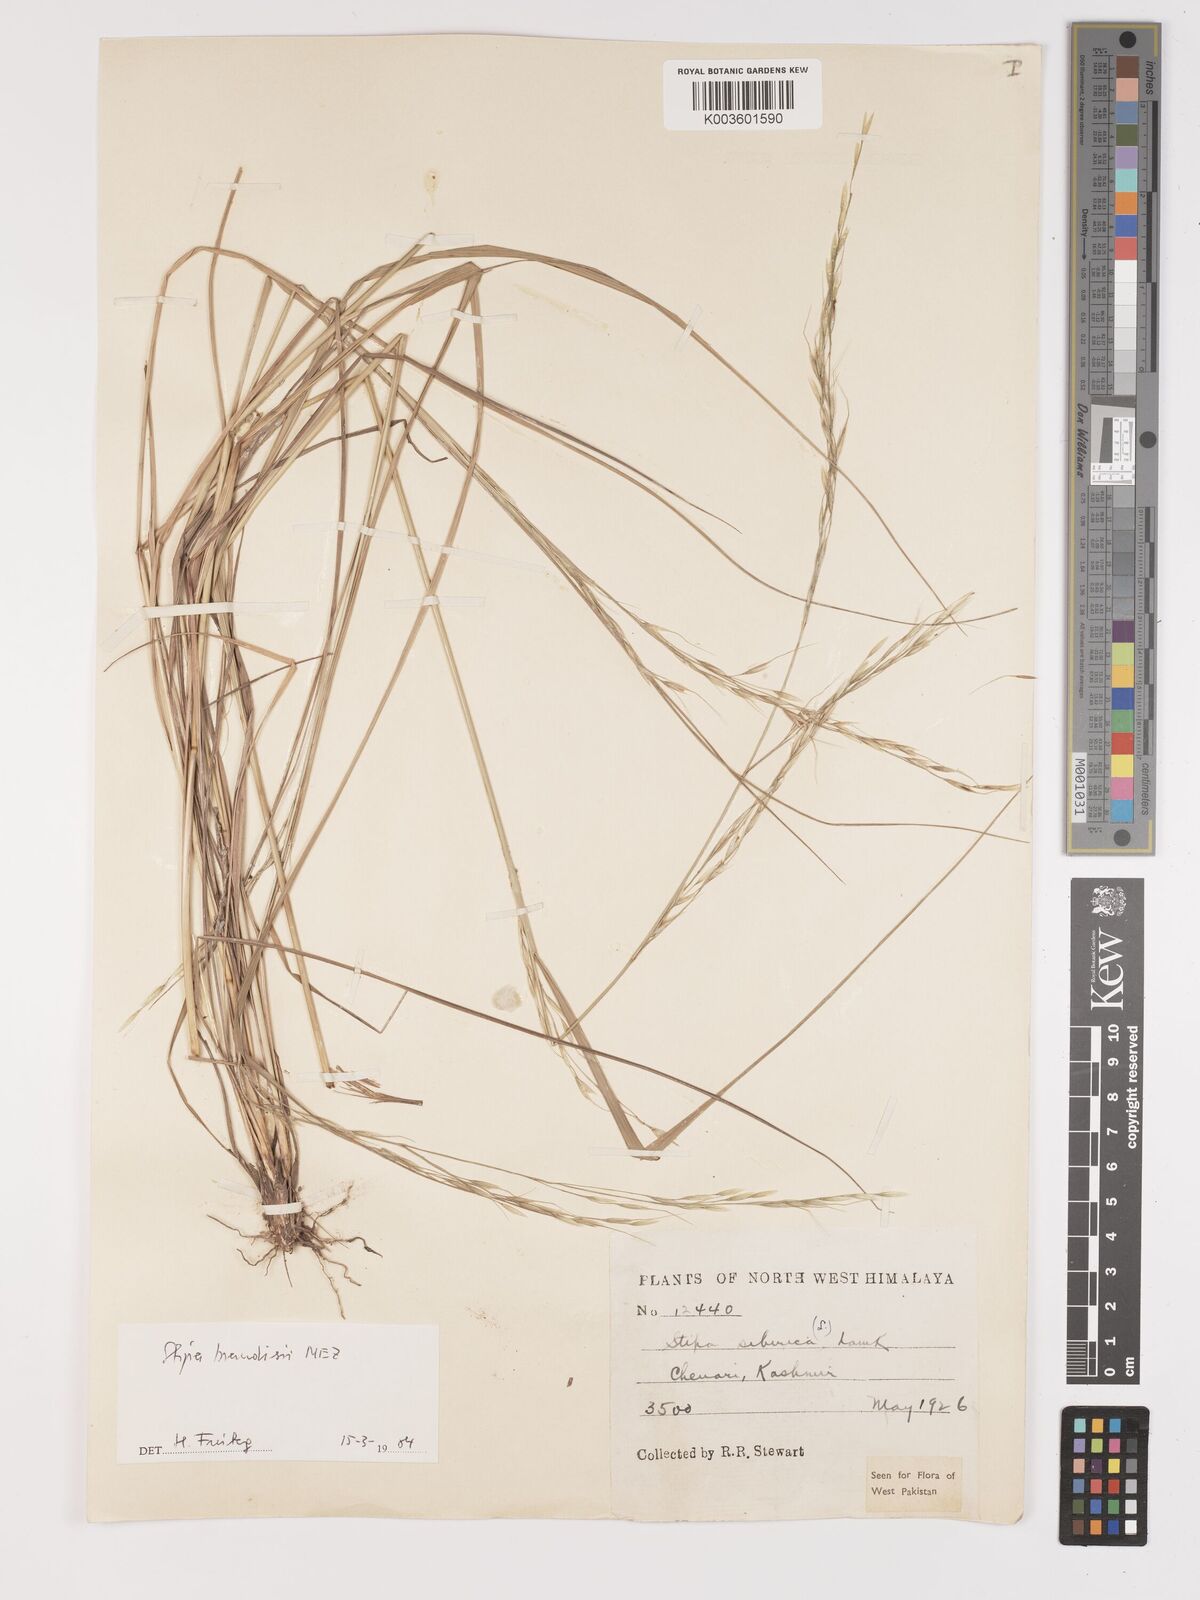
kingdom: Plantae
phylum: Tracheophyta
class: Liliopsida
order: Poales
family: Poaceae
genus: Achnatherum
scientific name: Achnatherum brandisii
